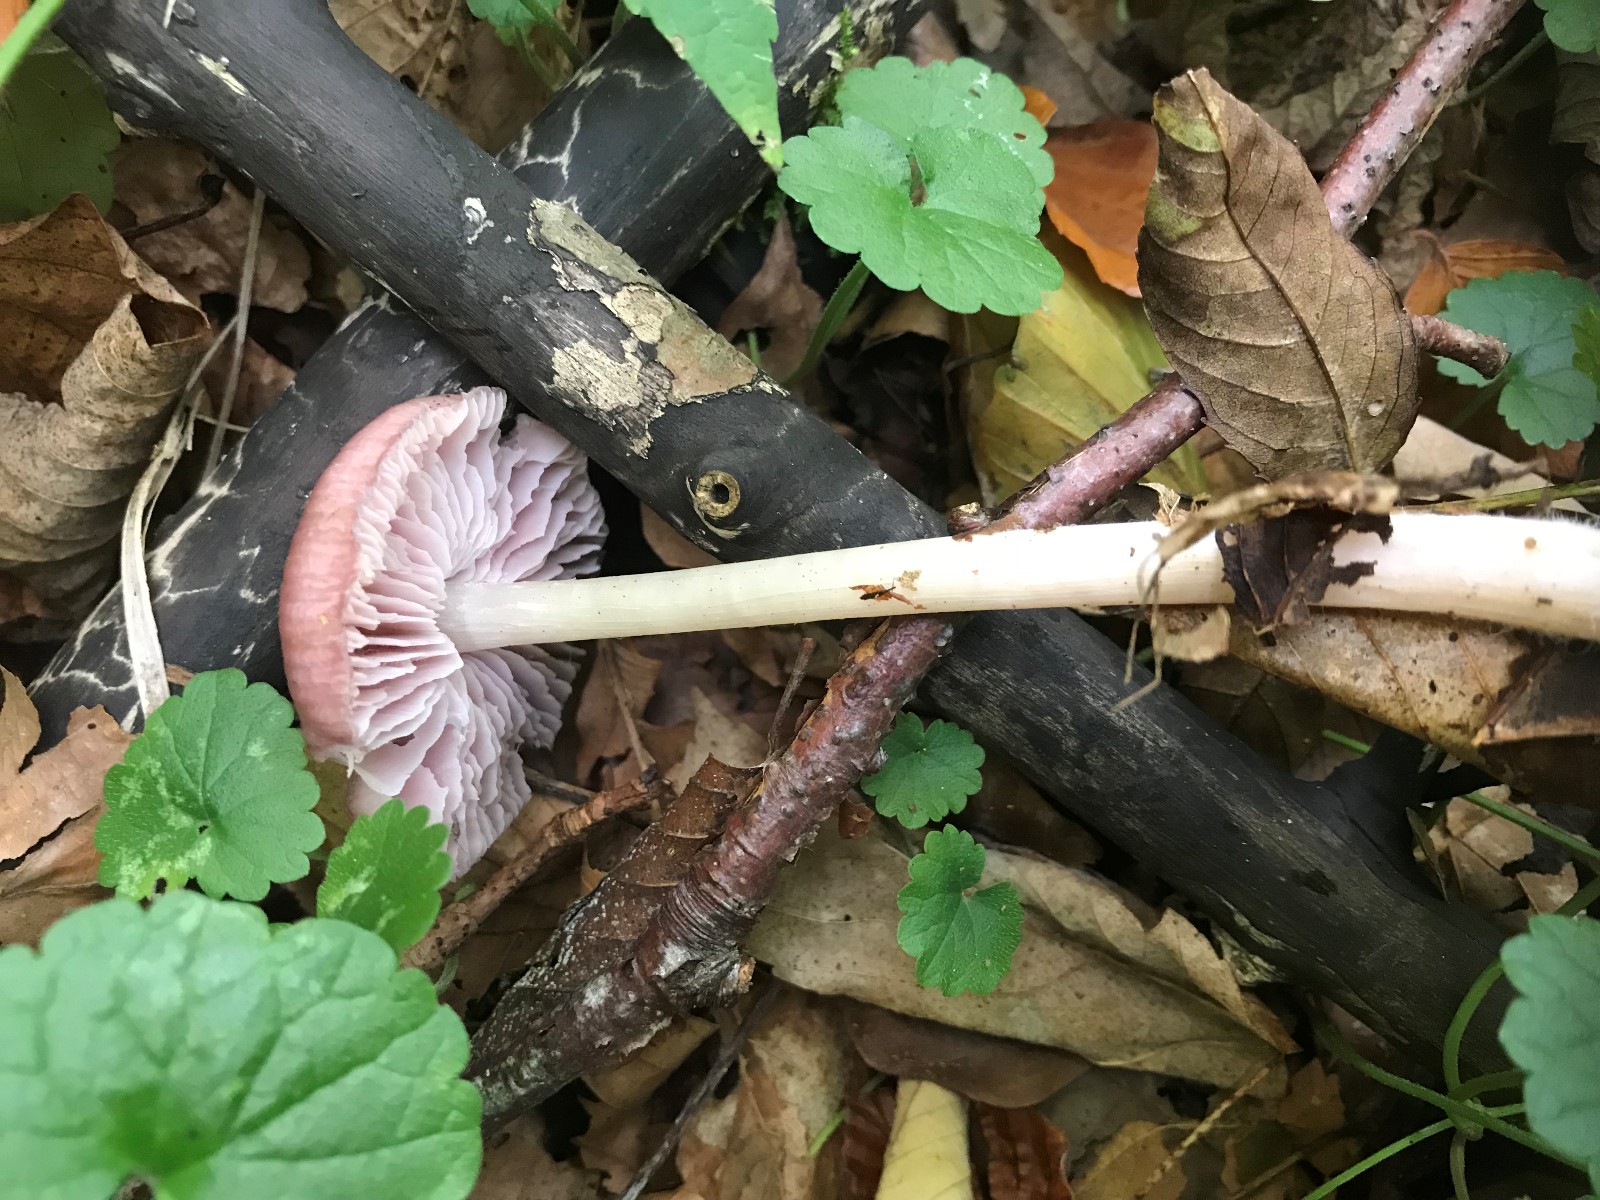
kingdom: Fungi
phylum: Basidiomycota
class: Agaricomycetes
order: Agaricales
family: Mycenaceae
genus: Mycena
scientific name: Mycena rosea
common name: rosa huesvamp
